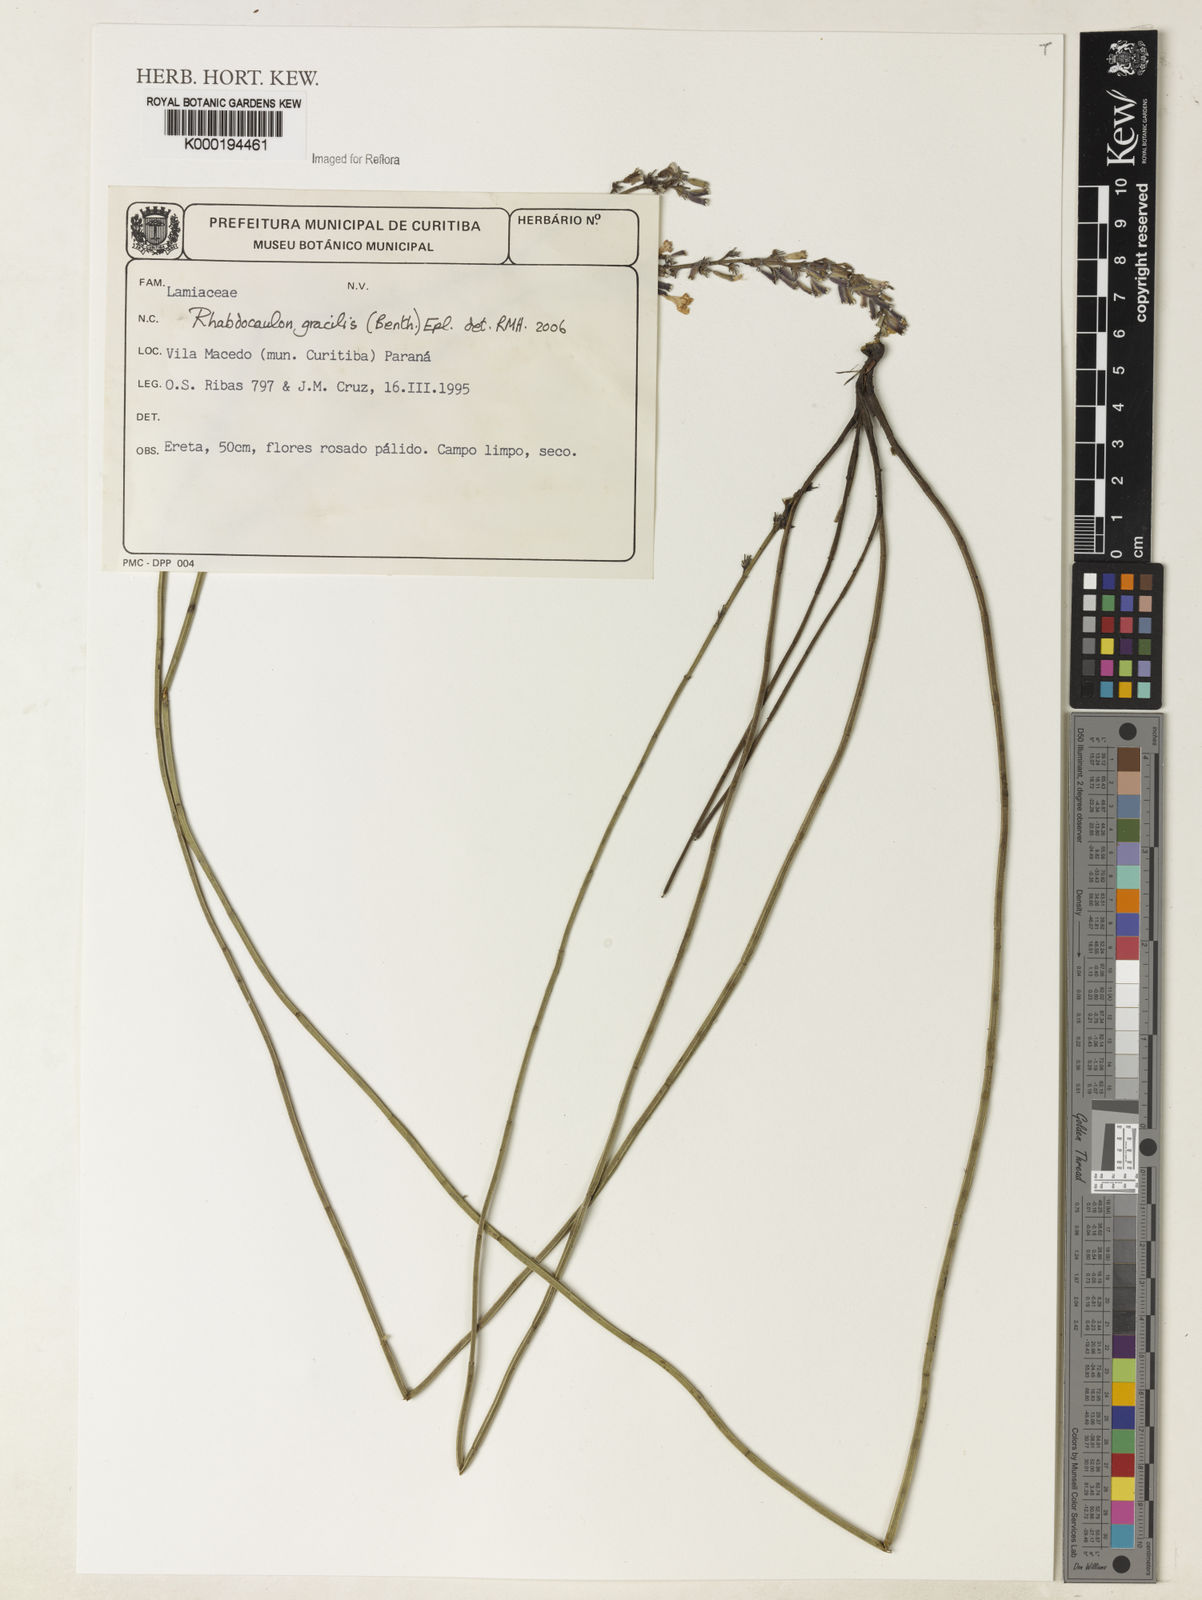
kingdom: Plantae
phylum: Tracheophyta
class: Magnoliopsida
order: Lamiales
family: Lamiaceae
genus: Rhabdocaulon
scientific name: Rhabdocaulon
